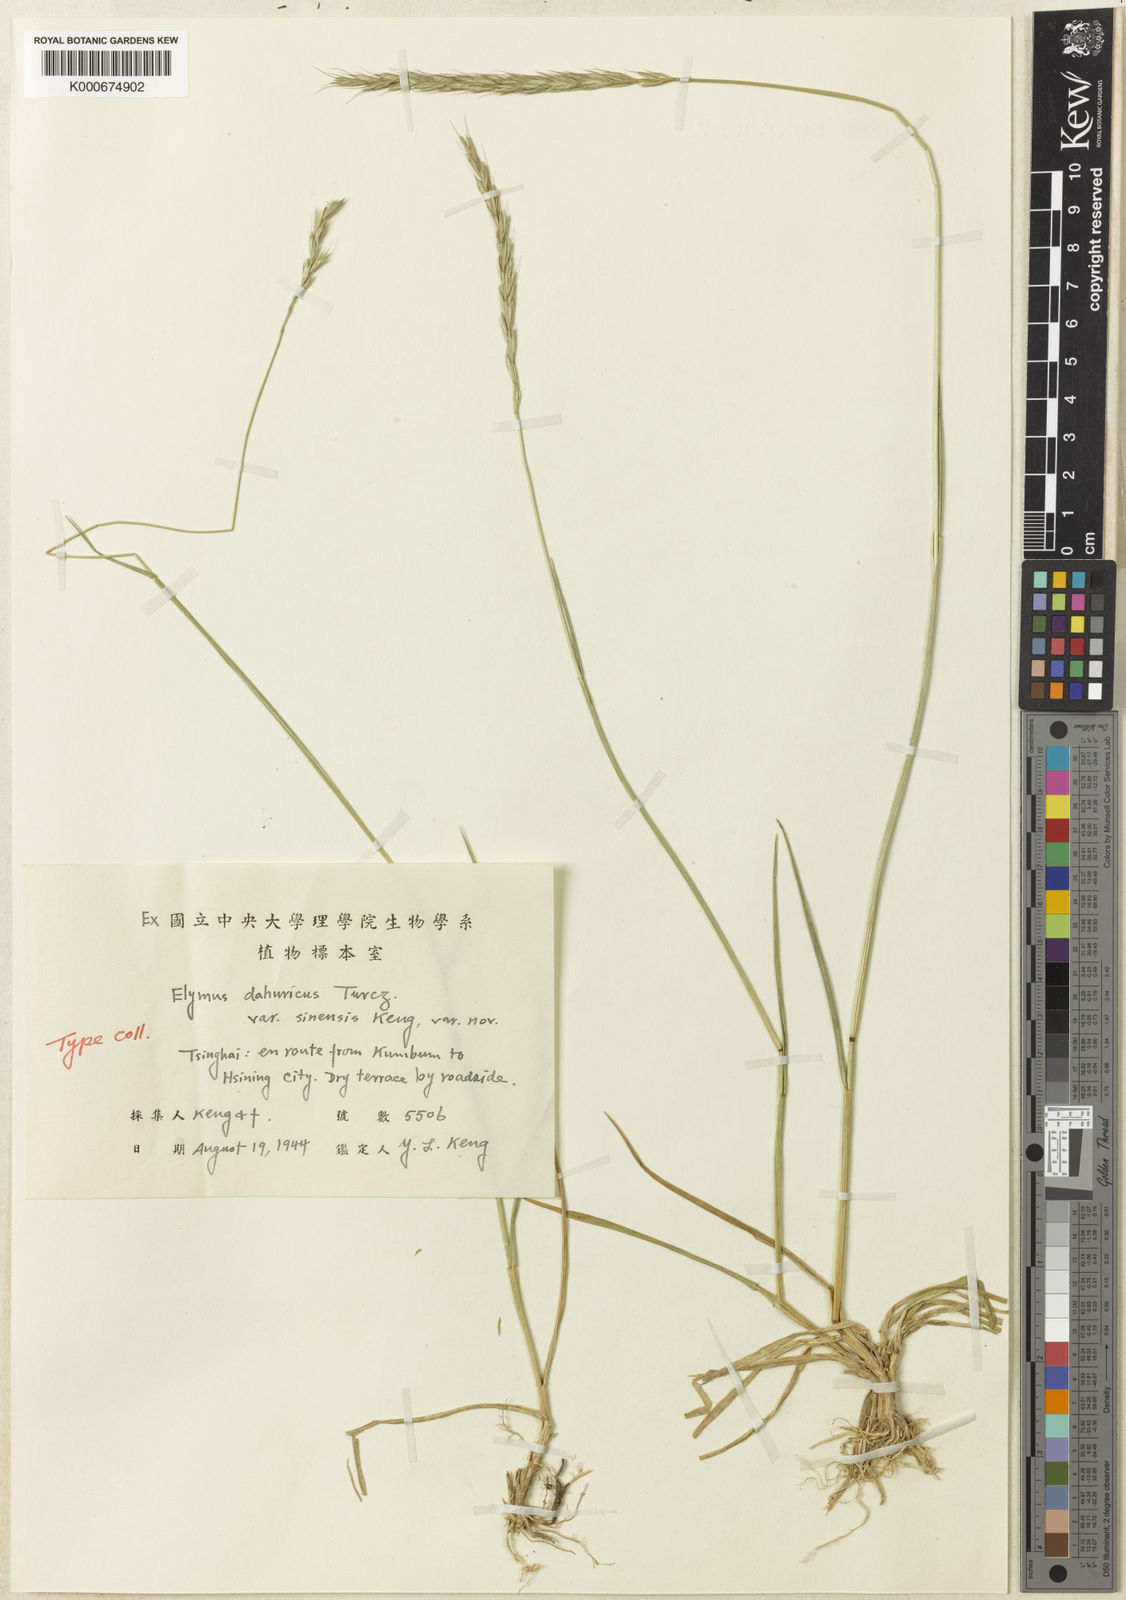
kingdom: Plantae
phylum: Tracheophyta
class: Liliopsida
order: Poales
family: Poaceae
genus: Elymus
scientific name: Elymus
